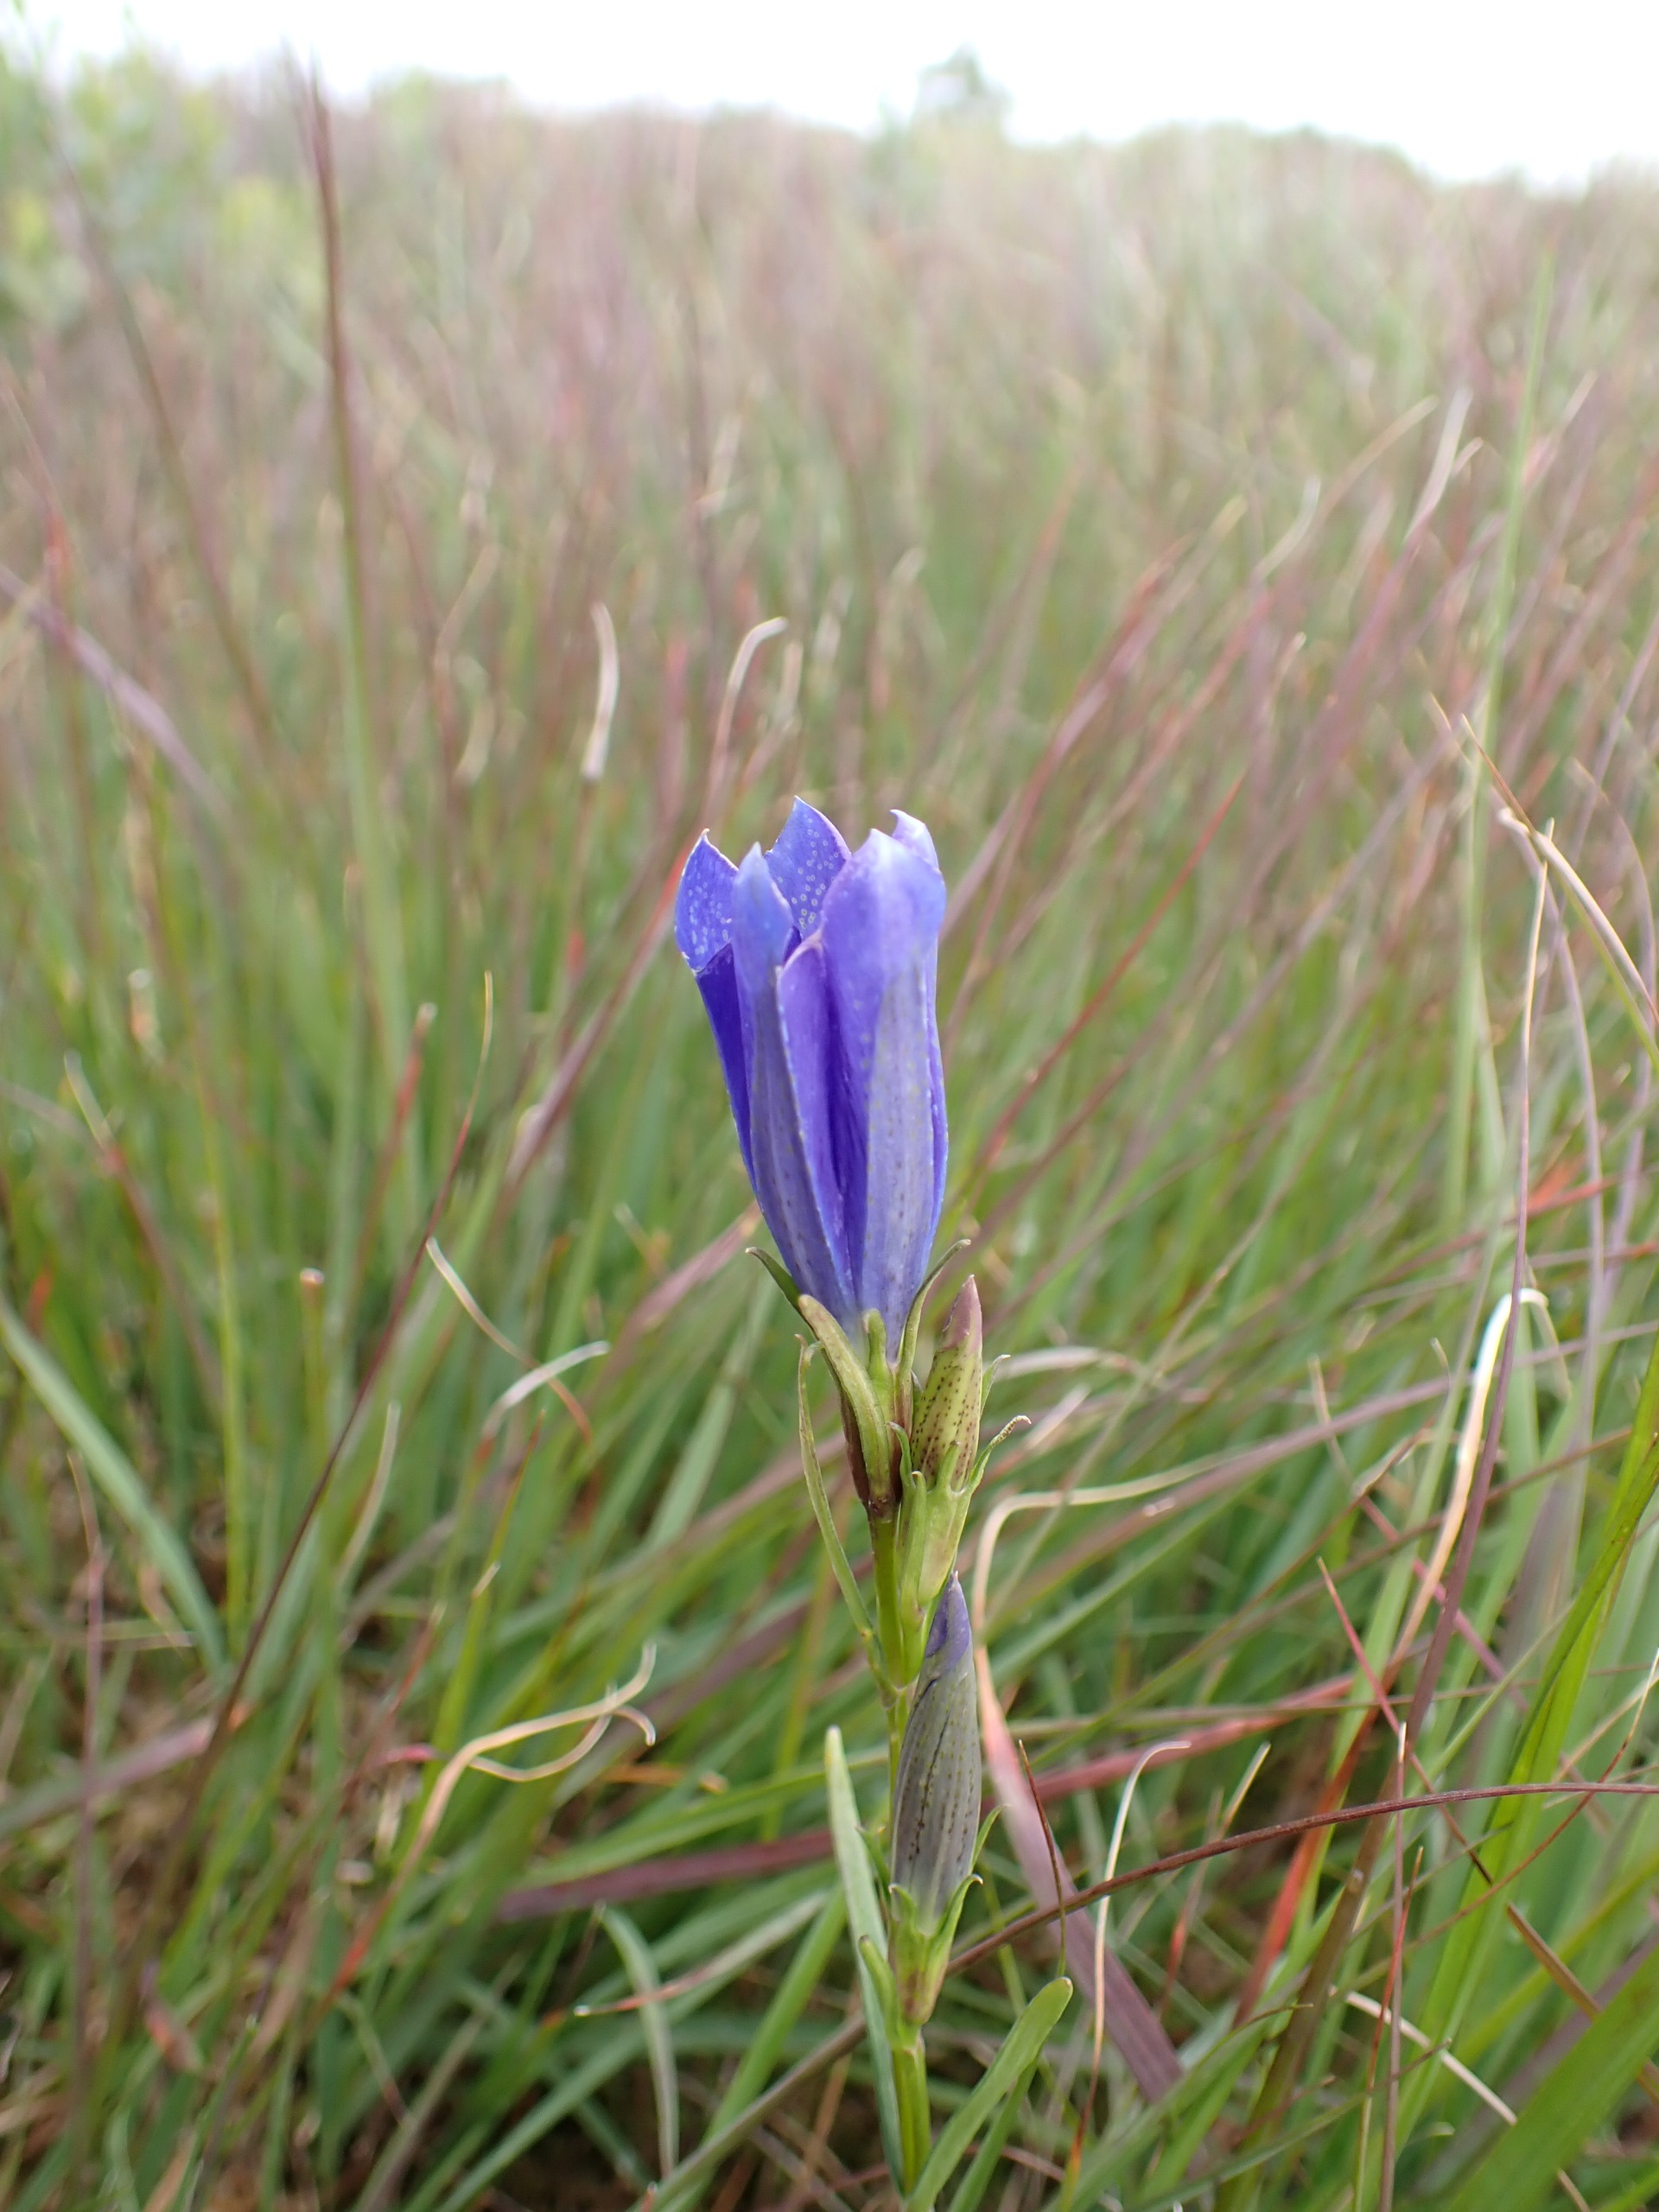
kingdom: Plantae
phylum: Tracheophyta
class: Magnoliopsida
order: Gentianales
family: Gentianaceae
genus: Gentiana
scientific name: Gentiana pneumonanthe
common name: Klokke-ensian
